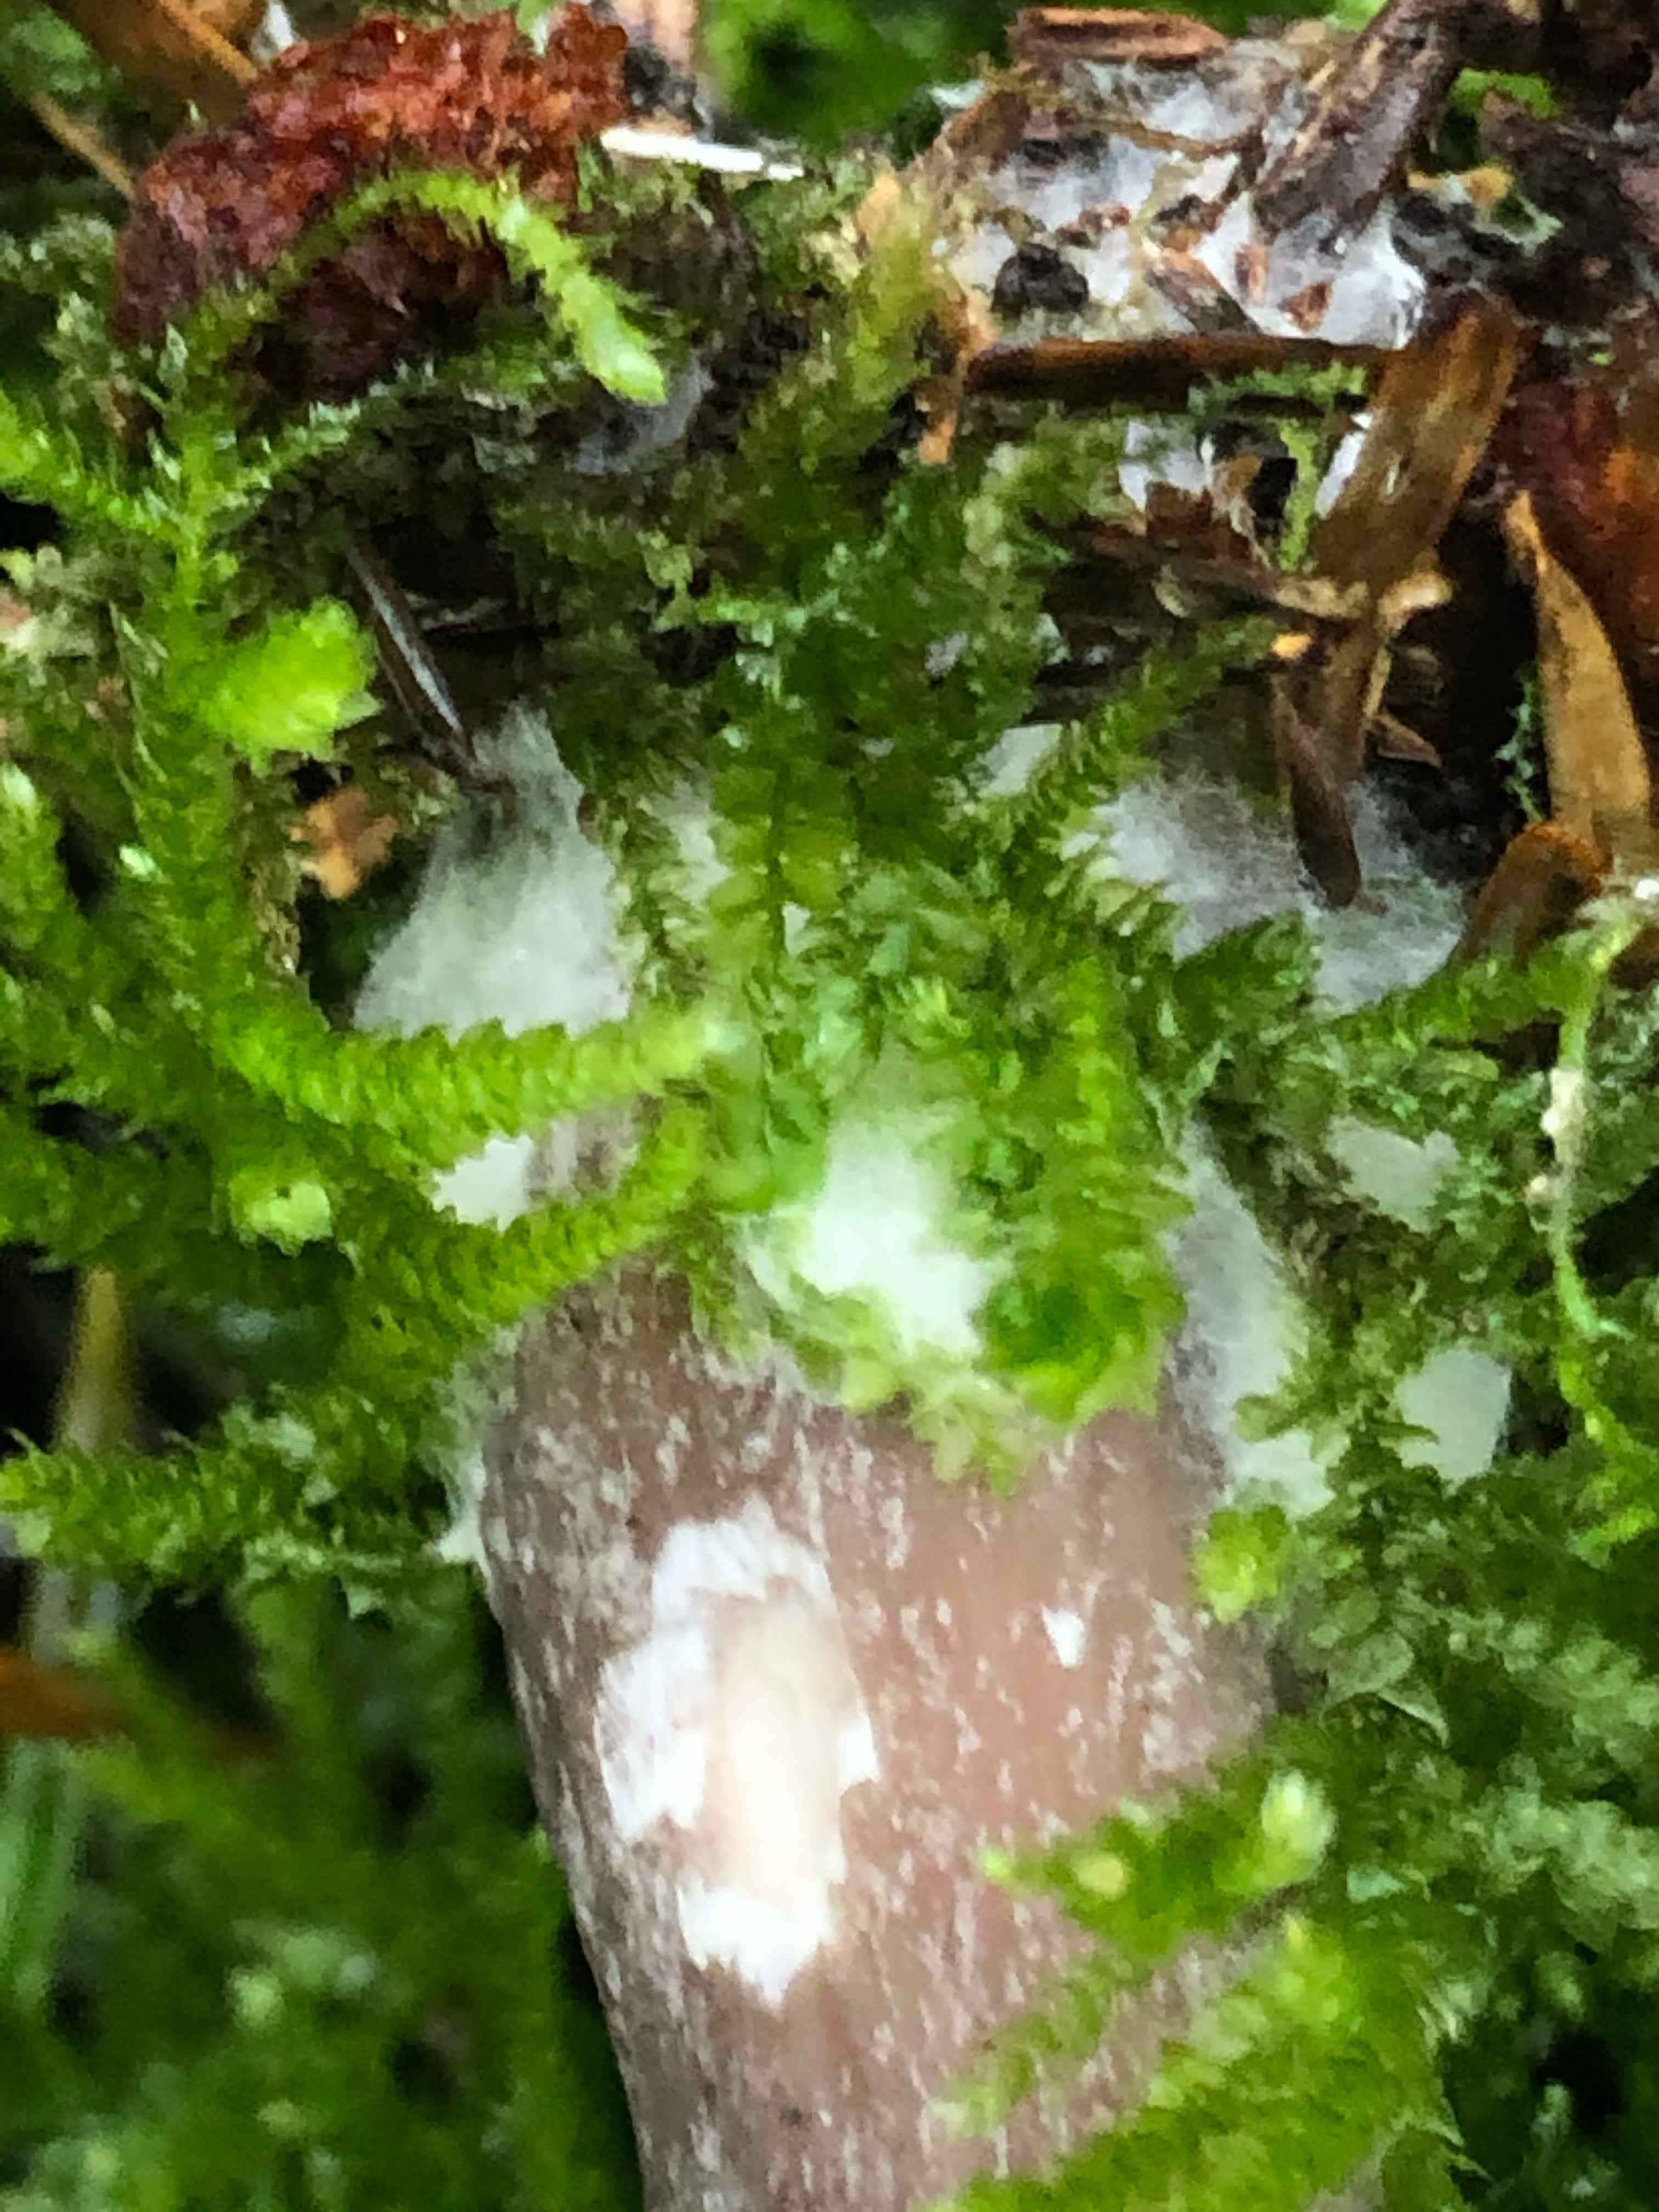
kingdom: Fungi
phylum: Basidiomycota
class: Agaricomycetes
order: Agaricales
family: Pseudoclitocybaceae
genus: Pseudoclitocybe
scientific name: Pseudoclitocybe cyathiformis
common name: almindelig bægertragthat
